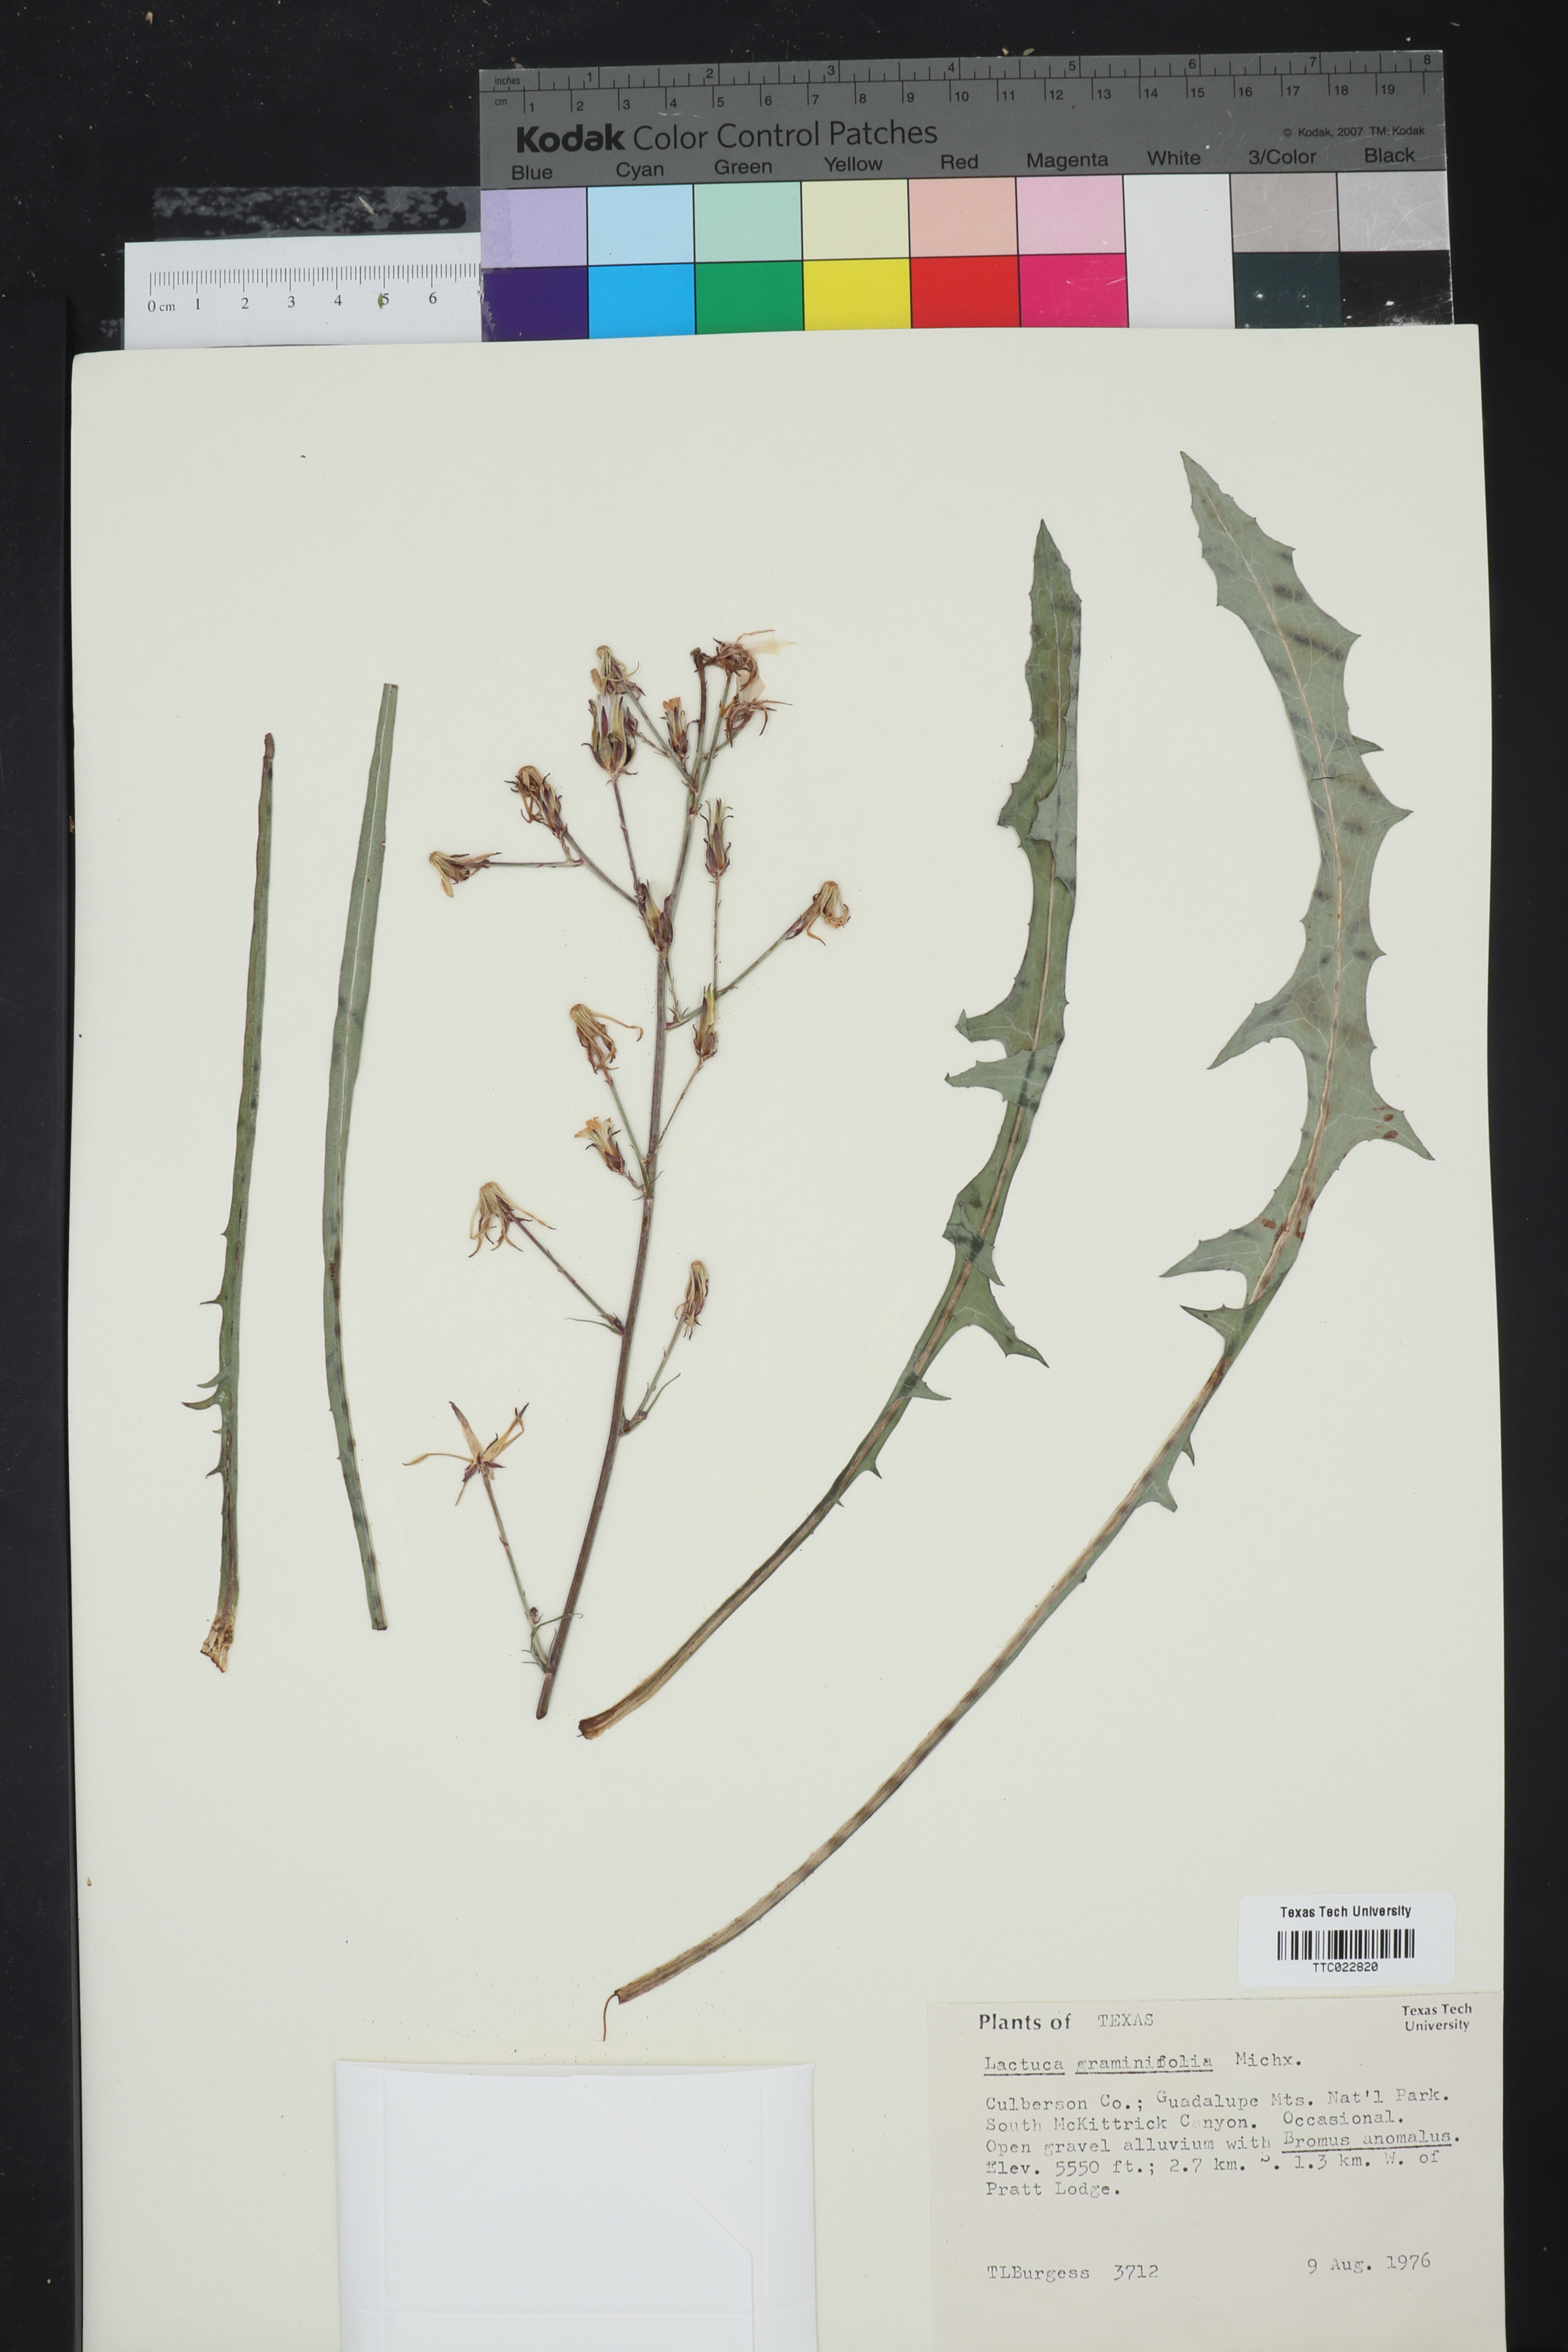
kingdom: Plantae
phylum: Tracheophyta
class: Magnoliopsida
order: Asterales
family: Asteraceae
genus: Lactuca
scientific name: Lactuca graminifolia
